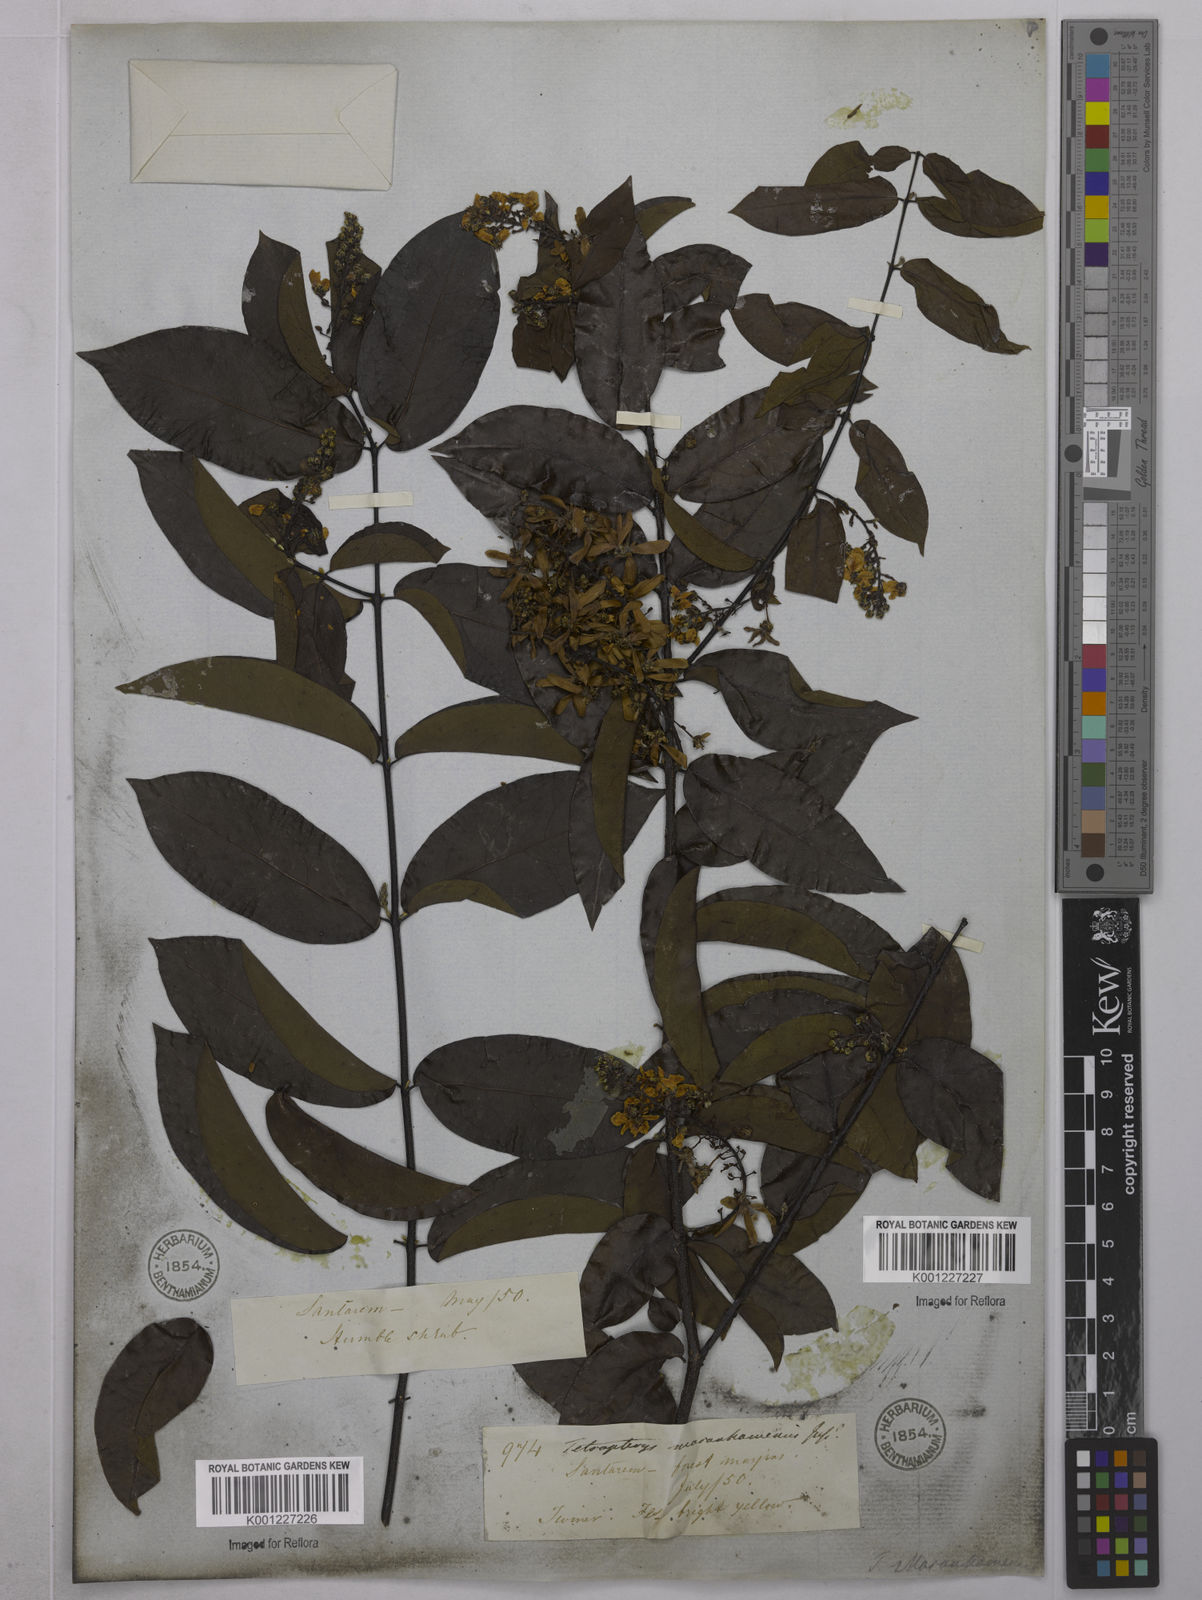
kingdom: Plantae
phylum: Tracheophyta
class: Magnoliopsida
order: Malpighiales
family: Malpighiaceae
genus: Glicophyllum
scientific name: Glicophyllum maranhamense
